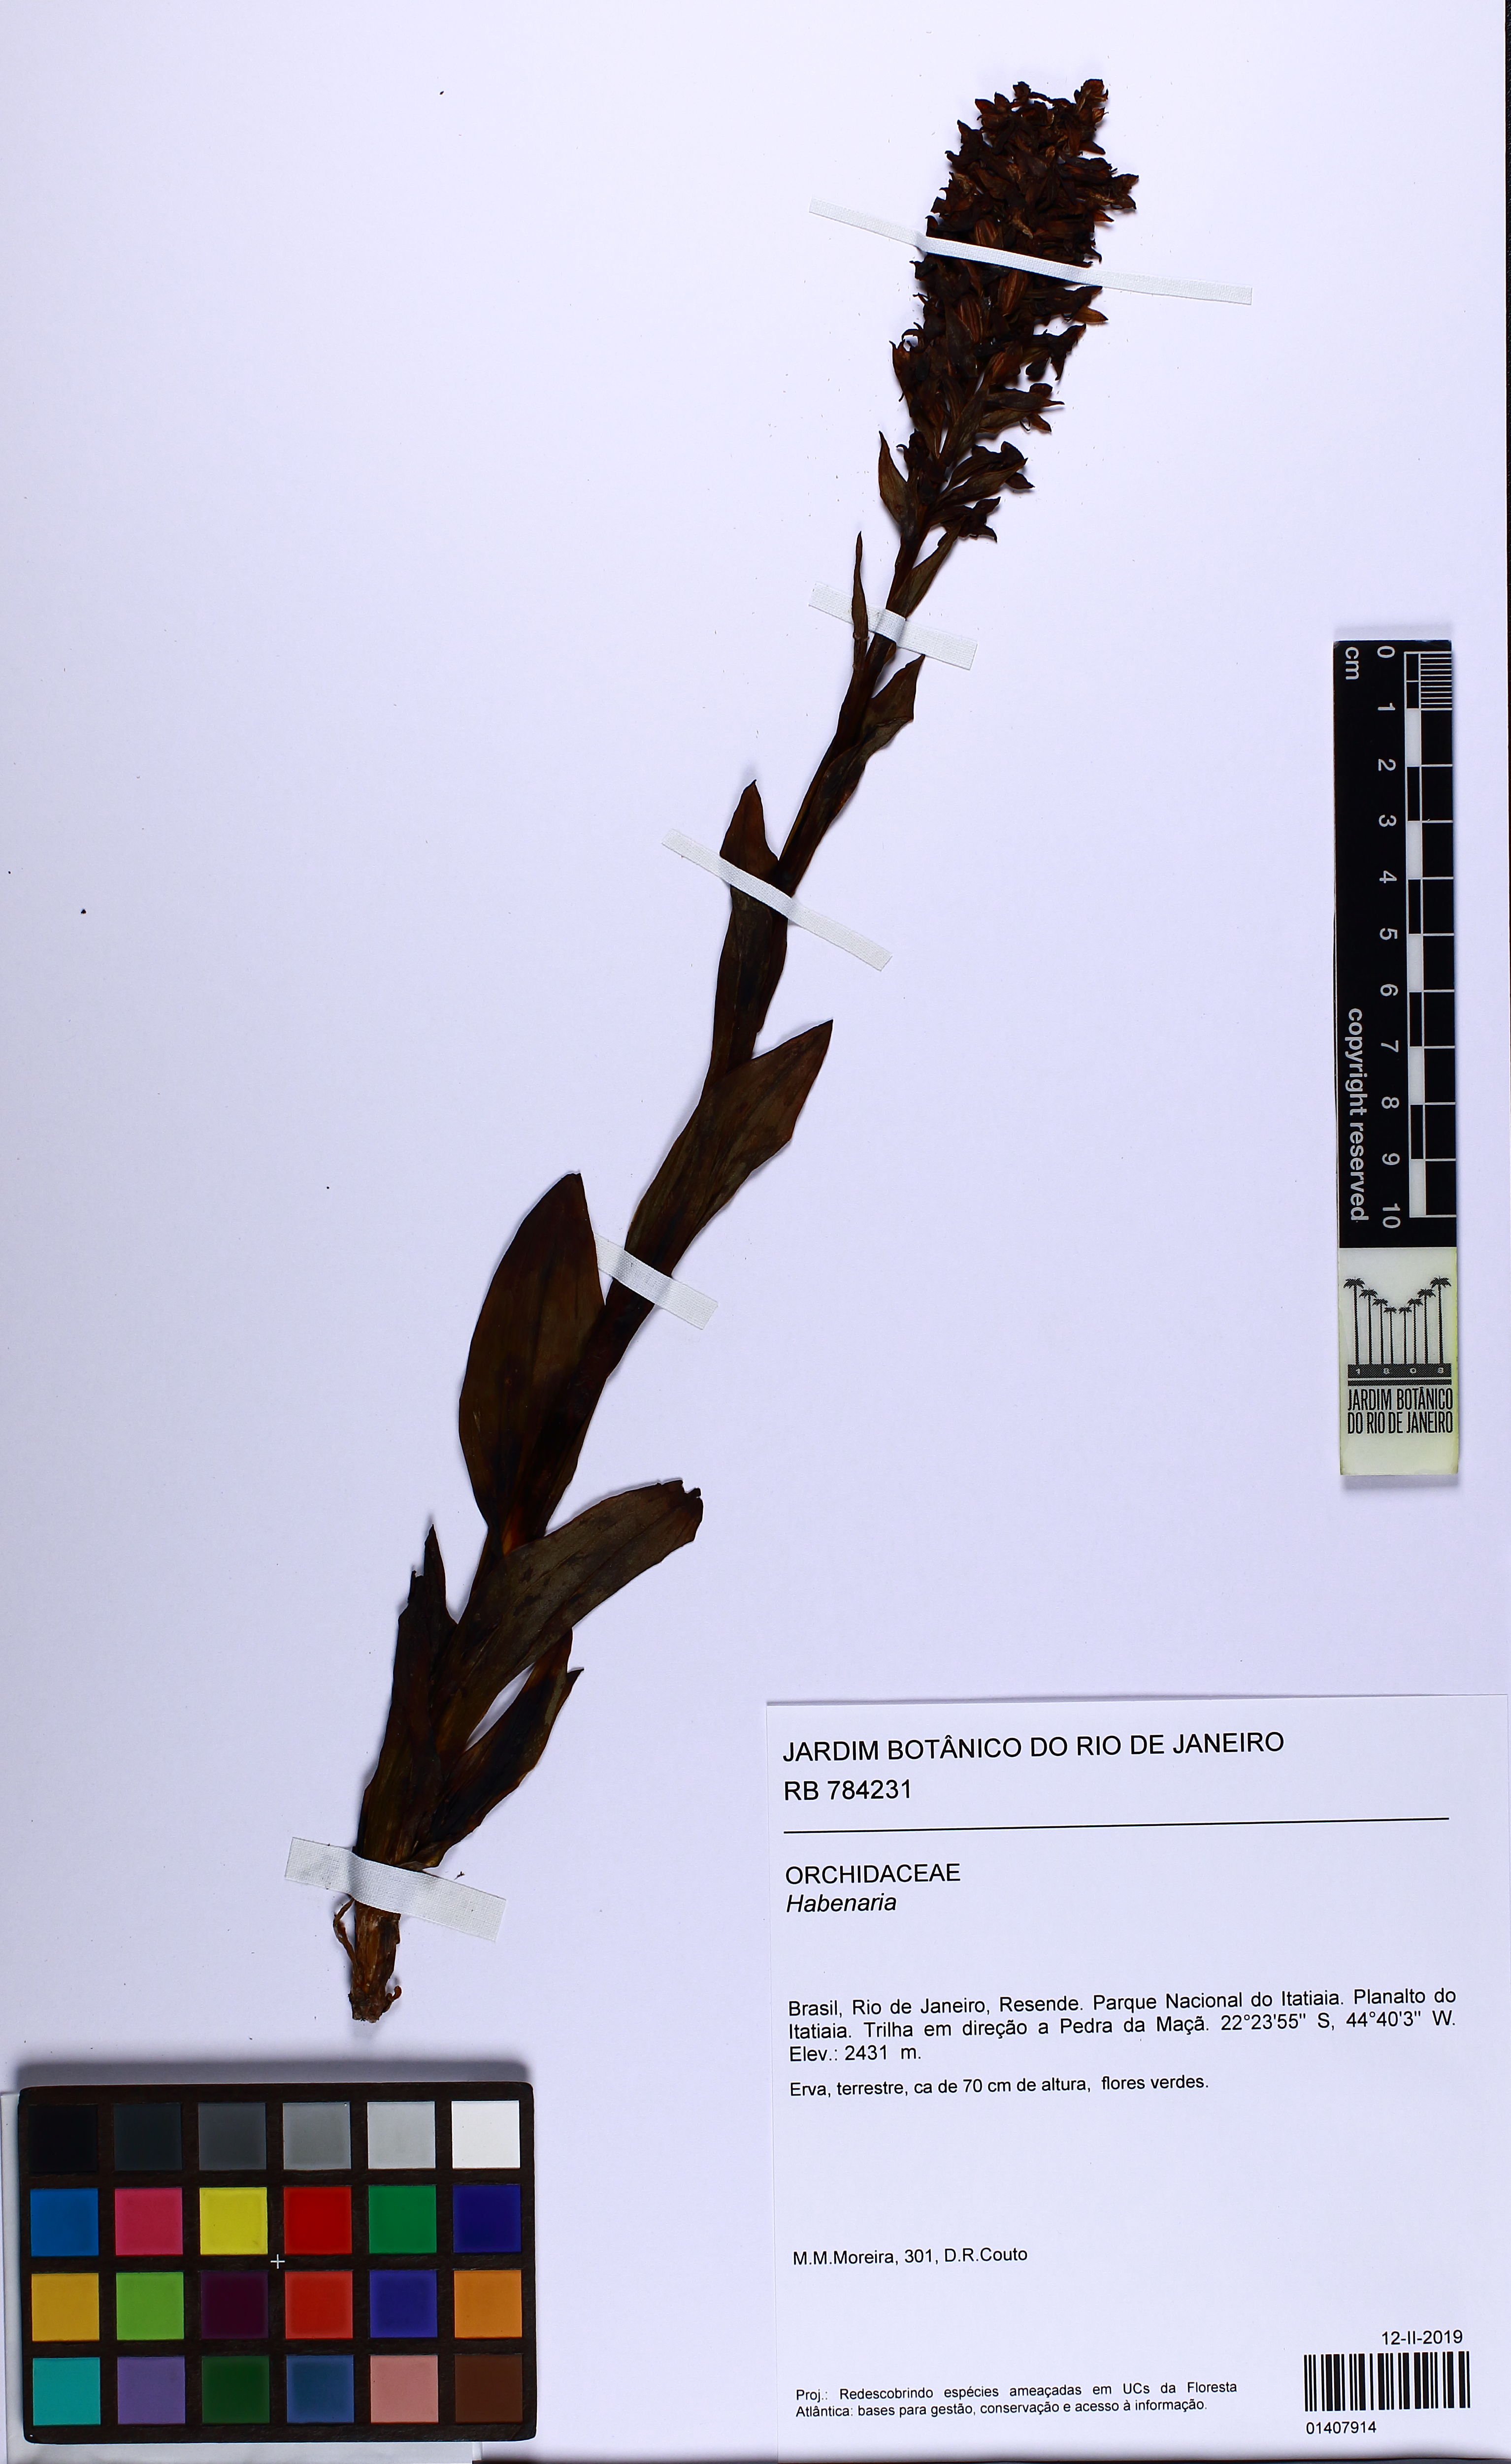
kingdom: Plantae
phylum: Tracheophyta
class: Liliopsida
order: Asparagales
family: Orchidaceae
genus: Habenaria
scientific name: Habenaria
